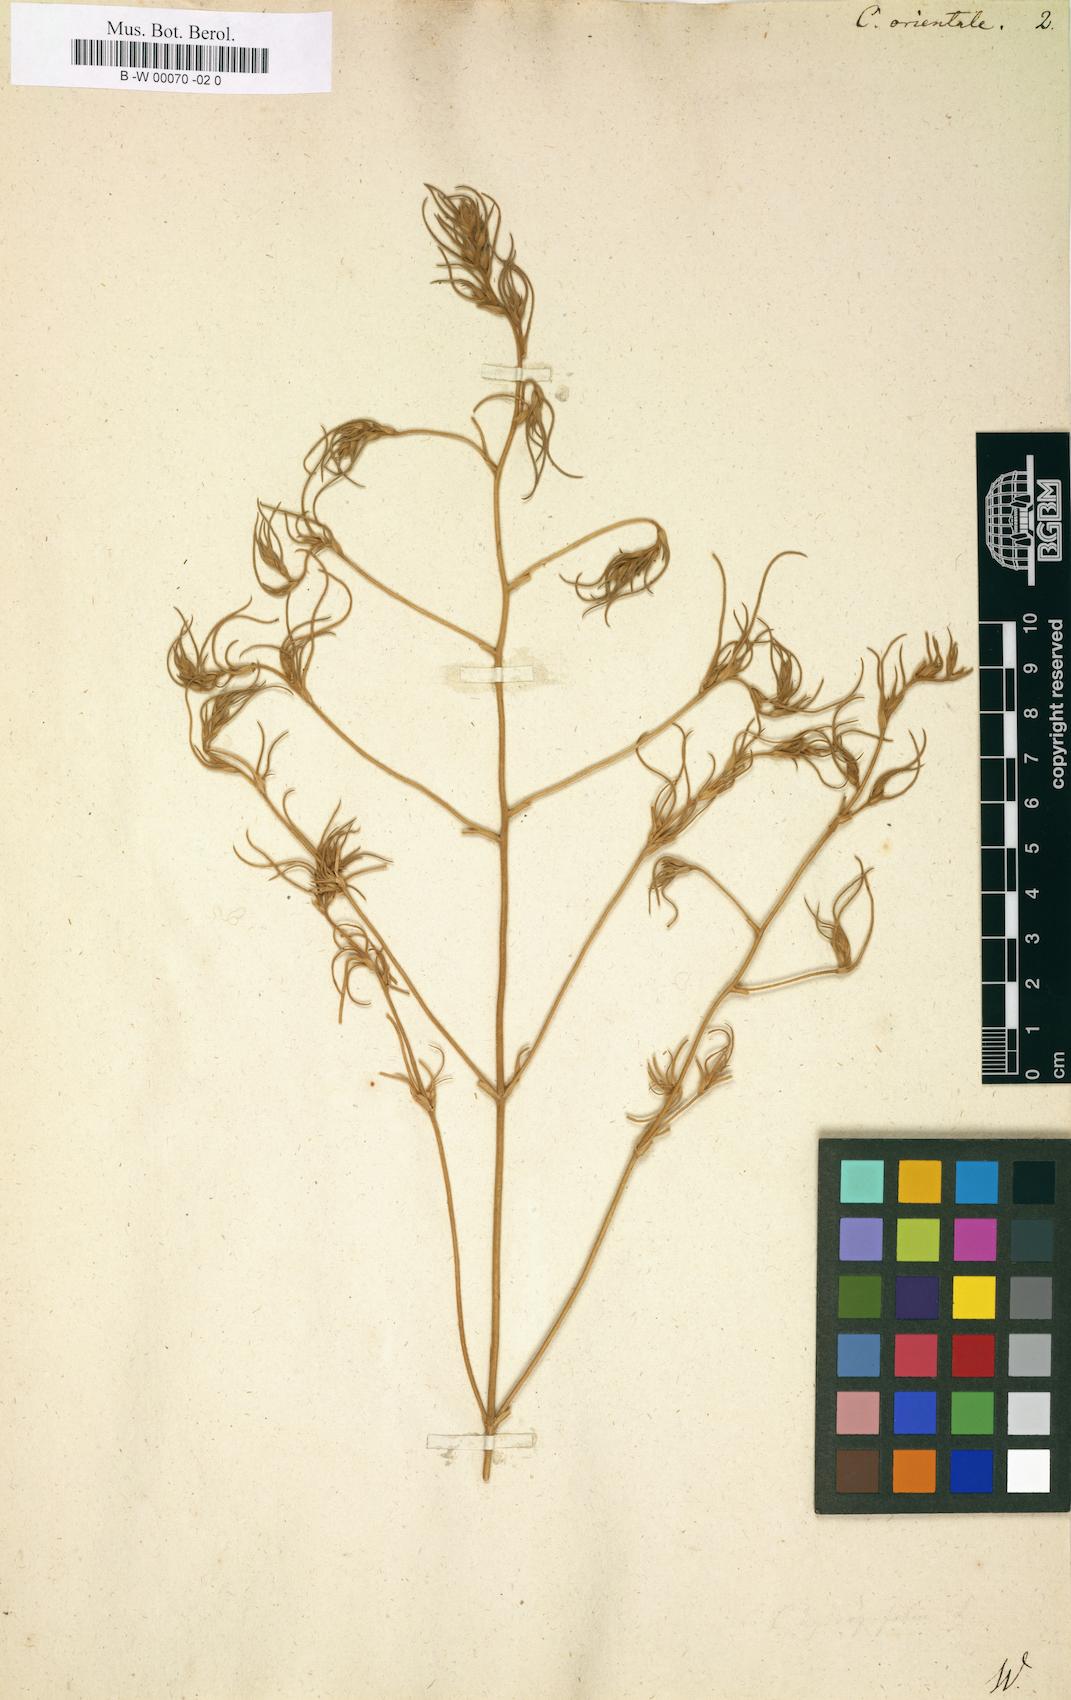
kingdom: Plantae
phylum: Tracheophyta
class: Magnoliopsida
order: Caryophyllales
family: Amaranthaceae
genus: Corispermum
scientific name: Corispermum aralocaspicum
